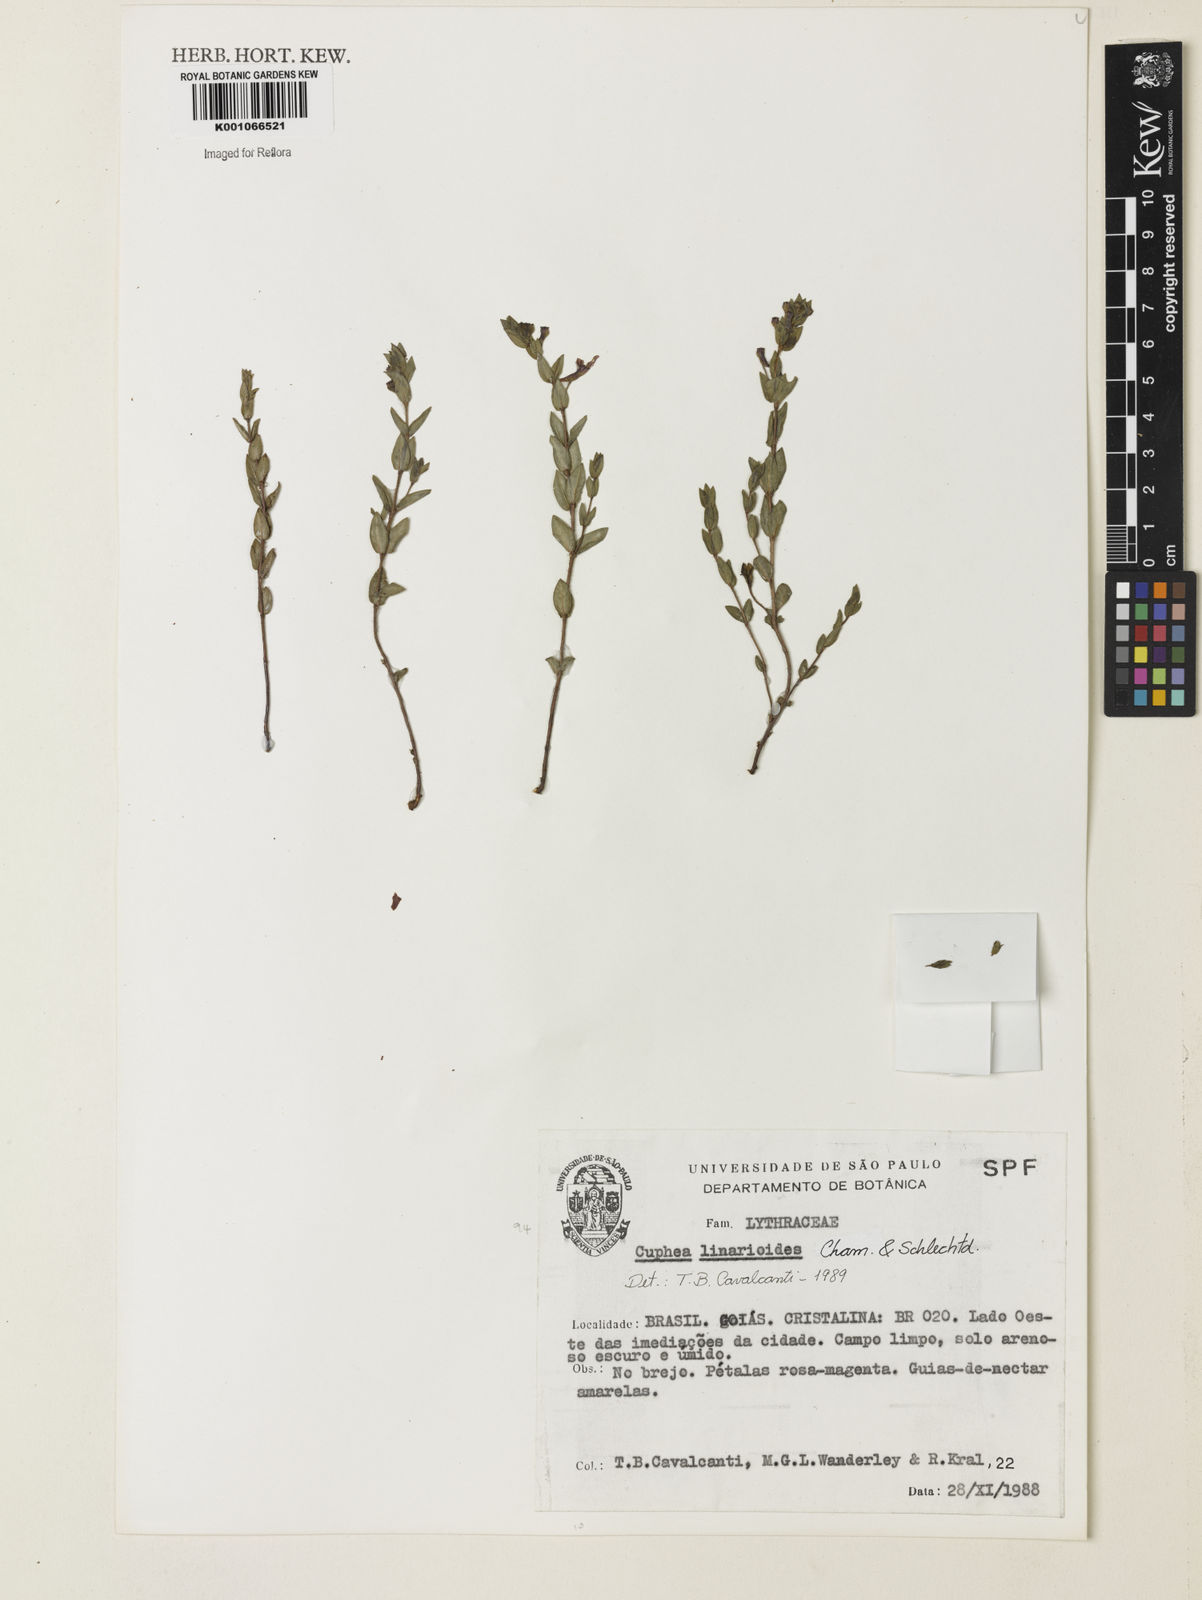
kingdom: Plantae
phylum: Tracheophyta
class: Magnoliopsida
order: Myrtales
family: Lythraceae
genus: Cuphea
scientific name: Cuphea linarioides
